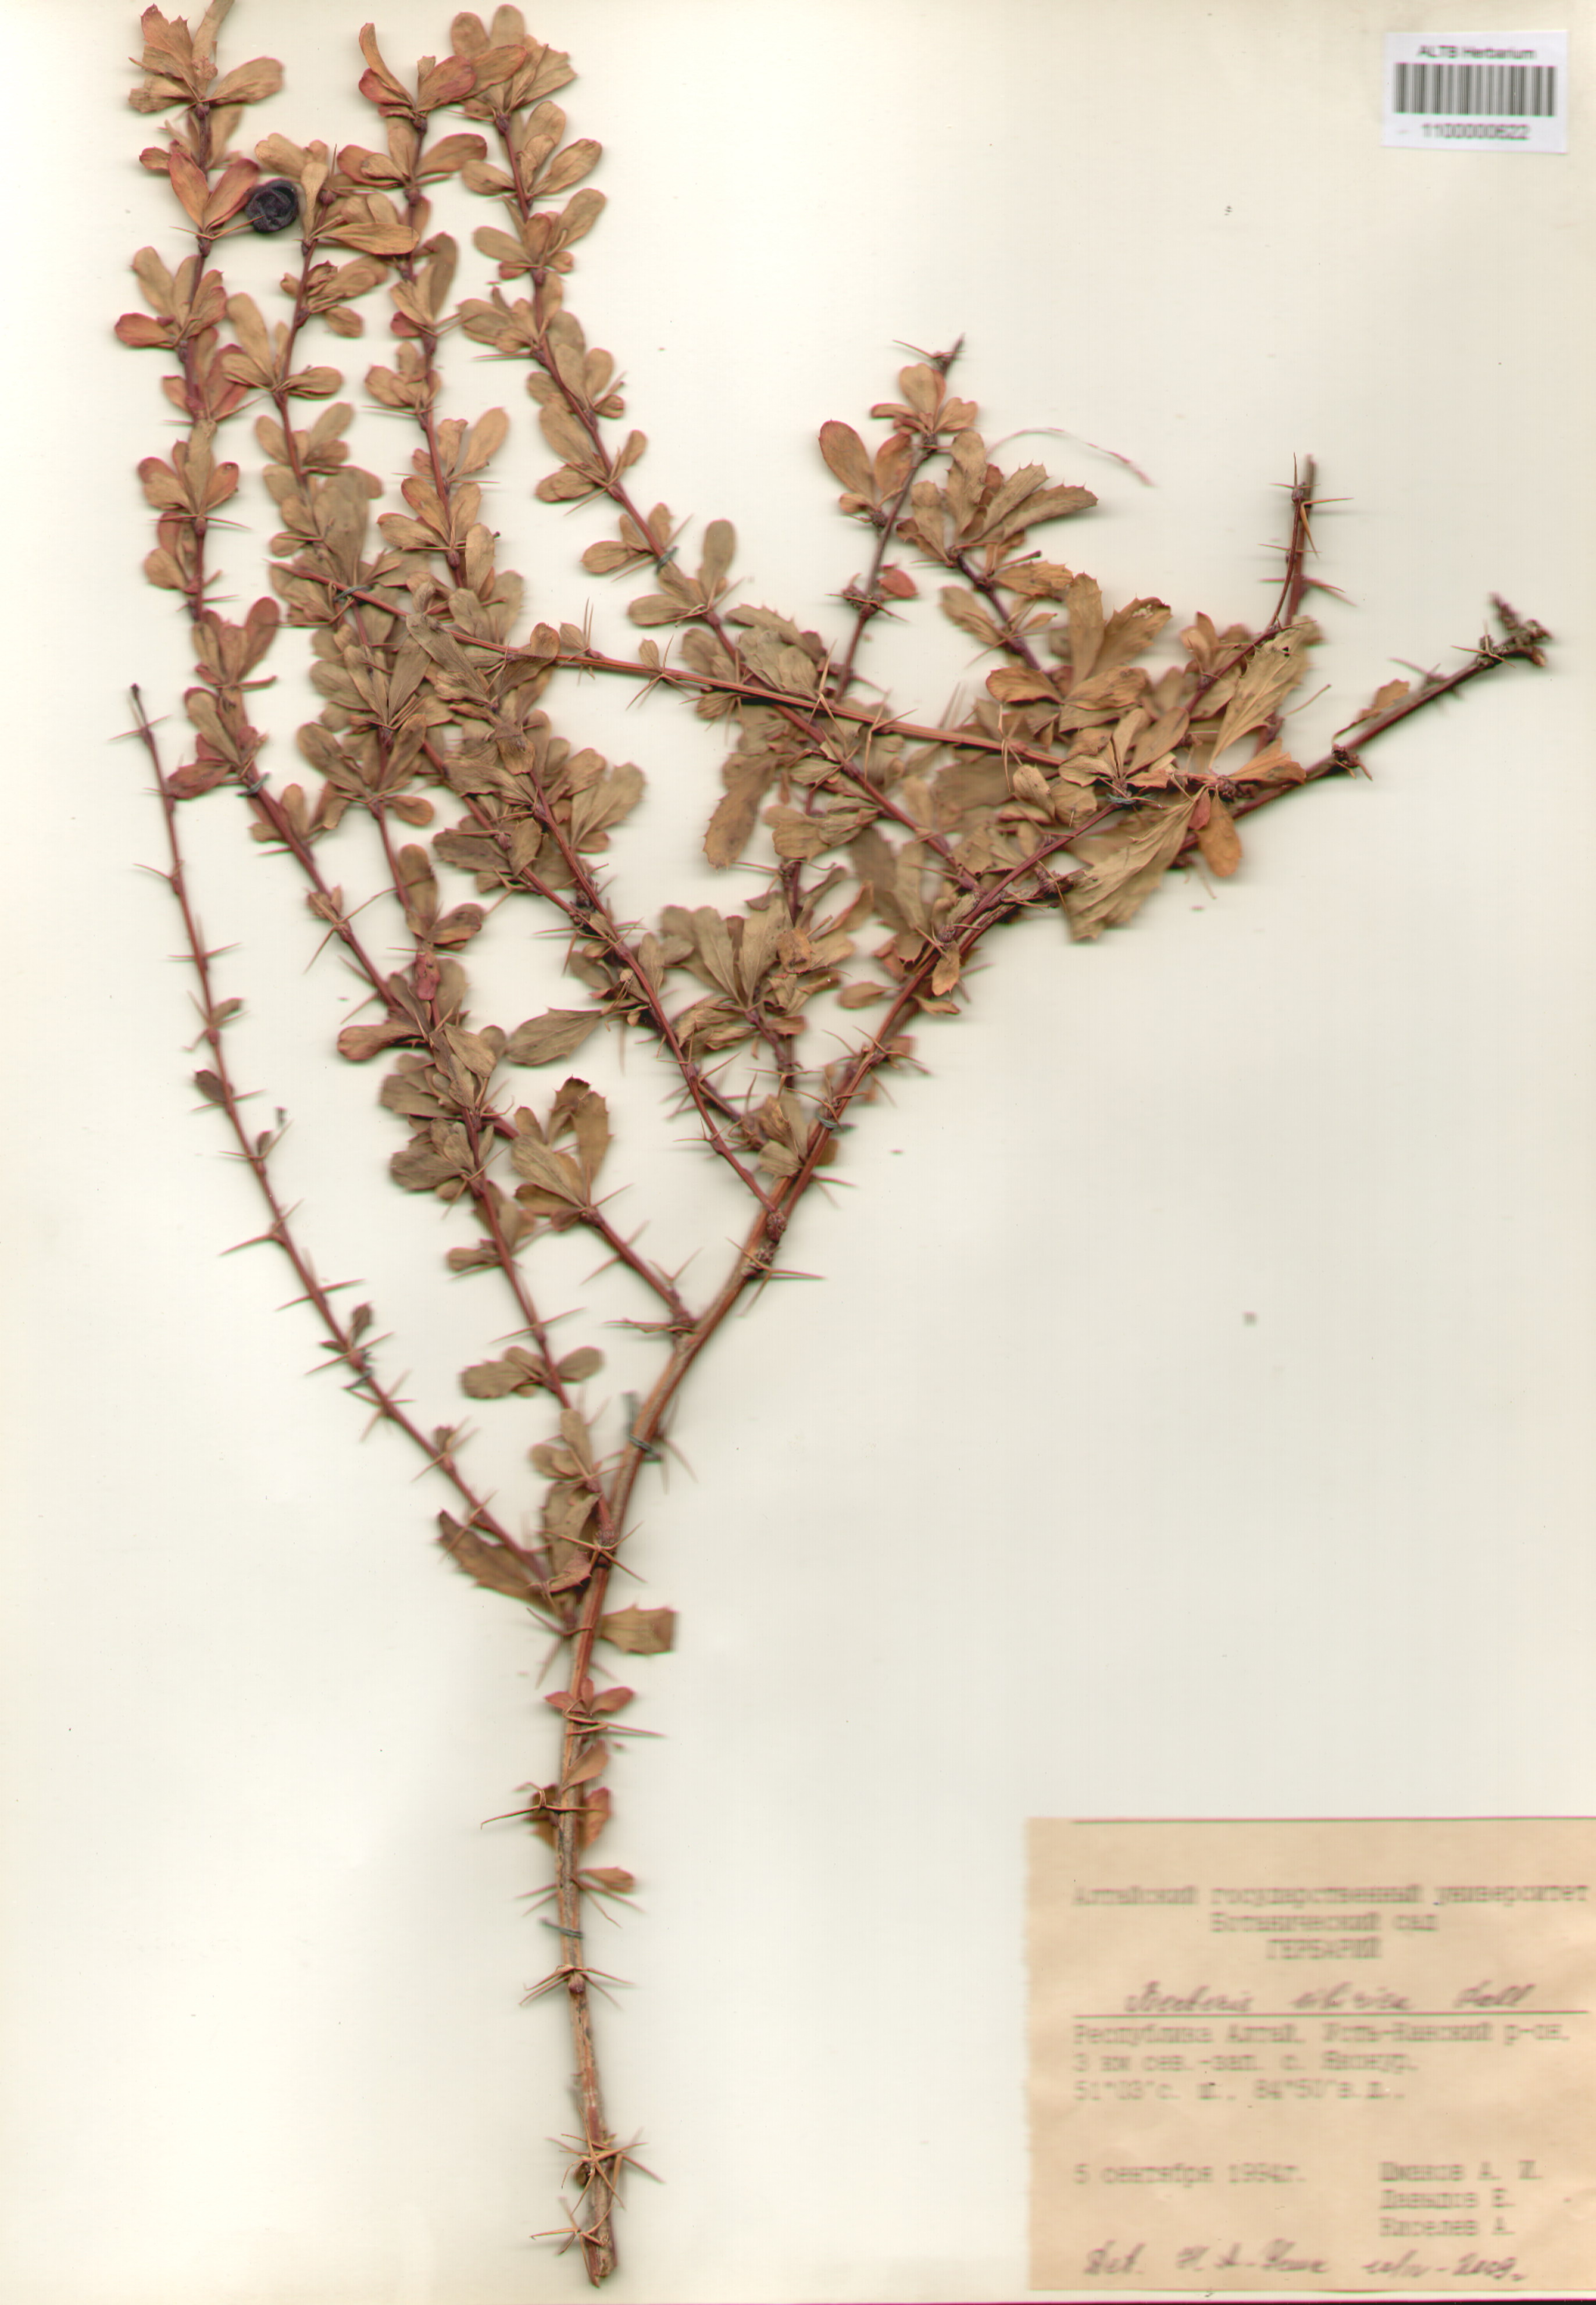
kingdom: Plantae
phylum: Tracheophyta
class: Magnoliopsida
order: Ranunculales
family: Berberidaceae
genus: Berberis
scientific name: Berberis sibirica
